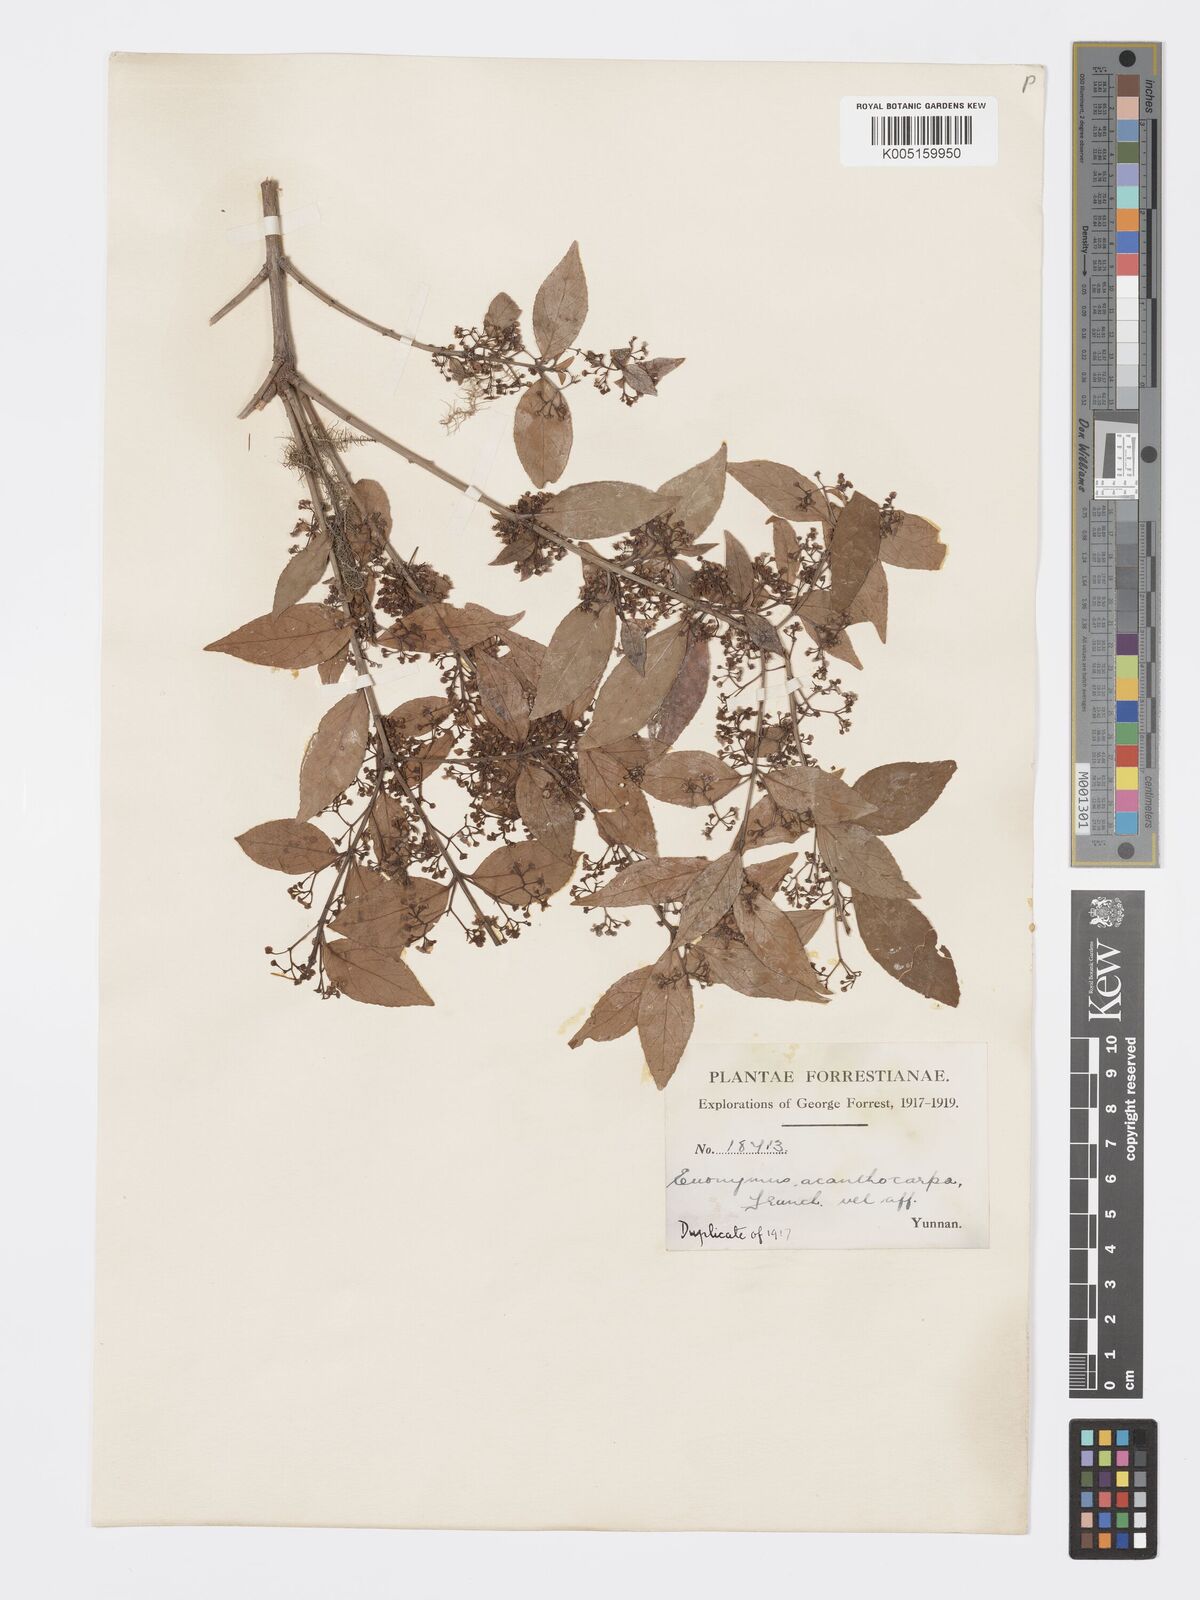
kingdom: Plantae
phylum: Tracheophyta
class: Magnoliopsida
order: Celastrales
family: Celastraceae
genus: Euonymus
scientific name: Euonymus echinatus
